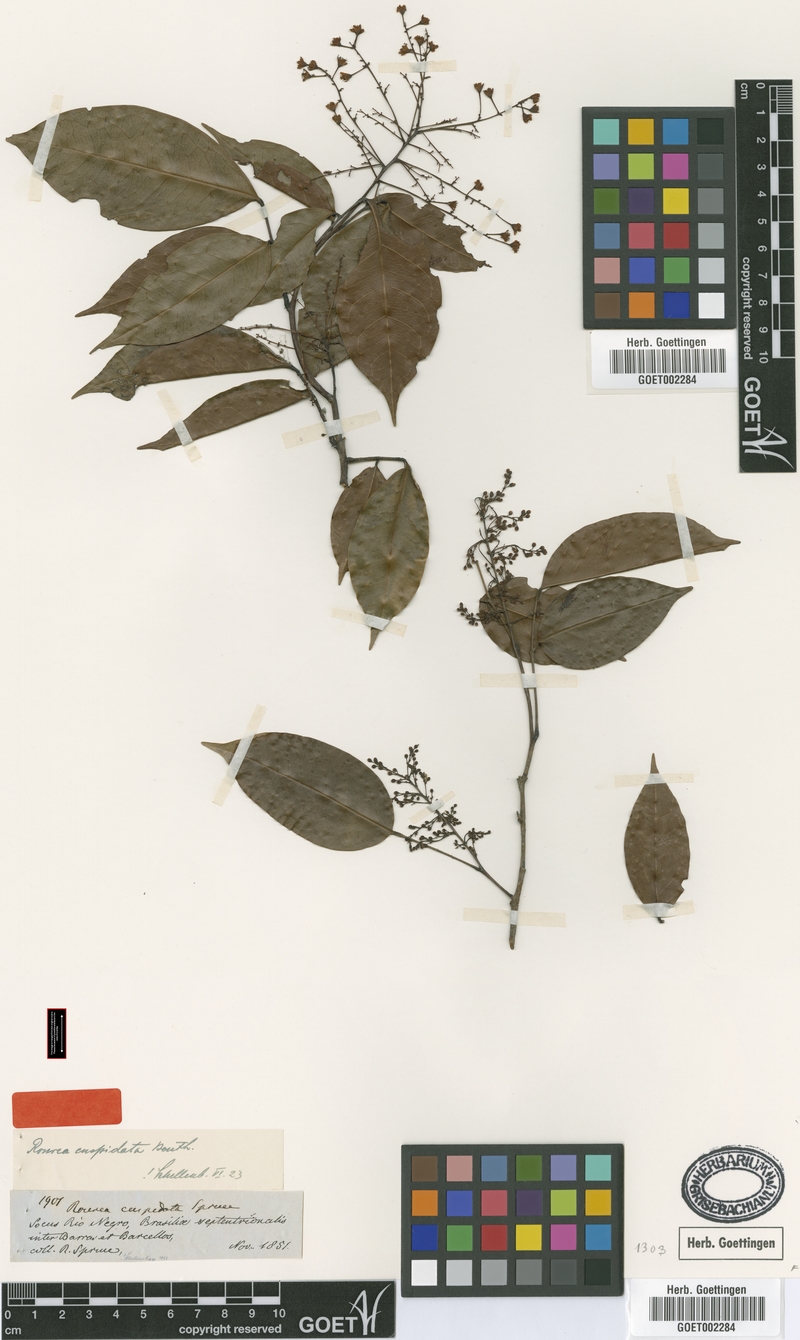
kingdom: Plantae
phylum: Tracheophyta
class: Magnoliopsida
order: Oxalidales
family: Connaraceae
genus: Rourea
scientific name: Rourea cuspidata
